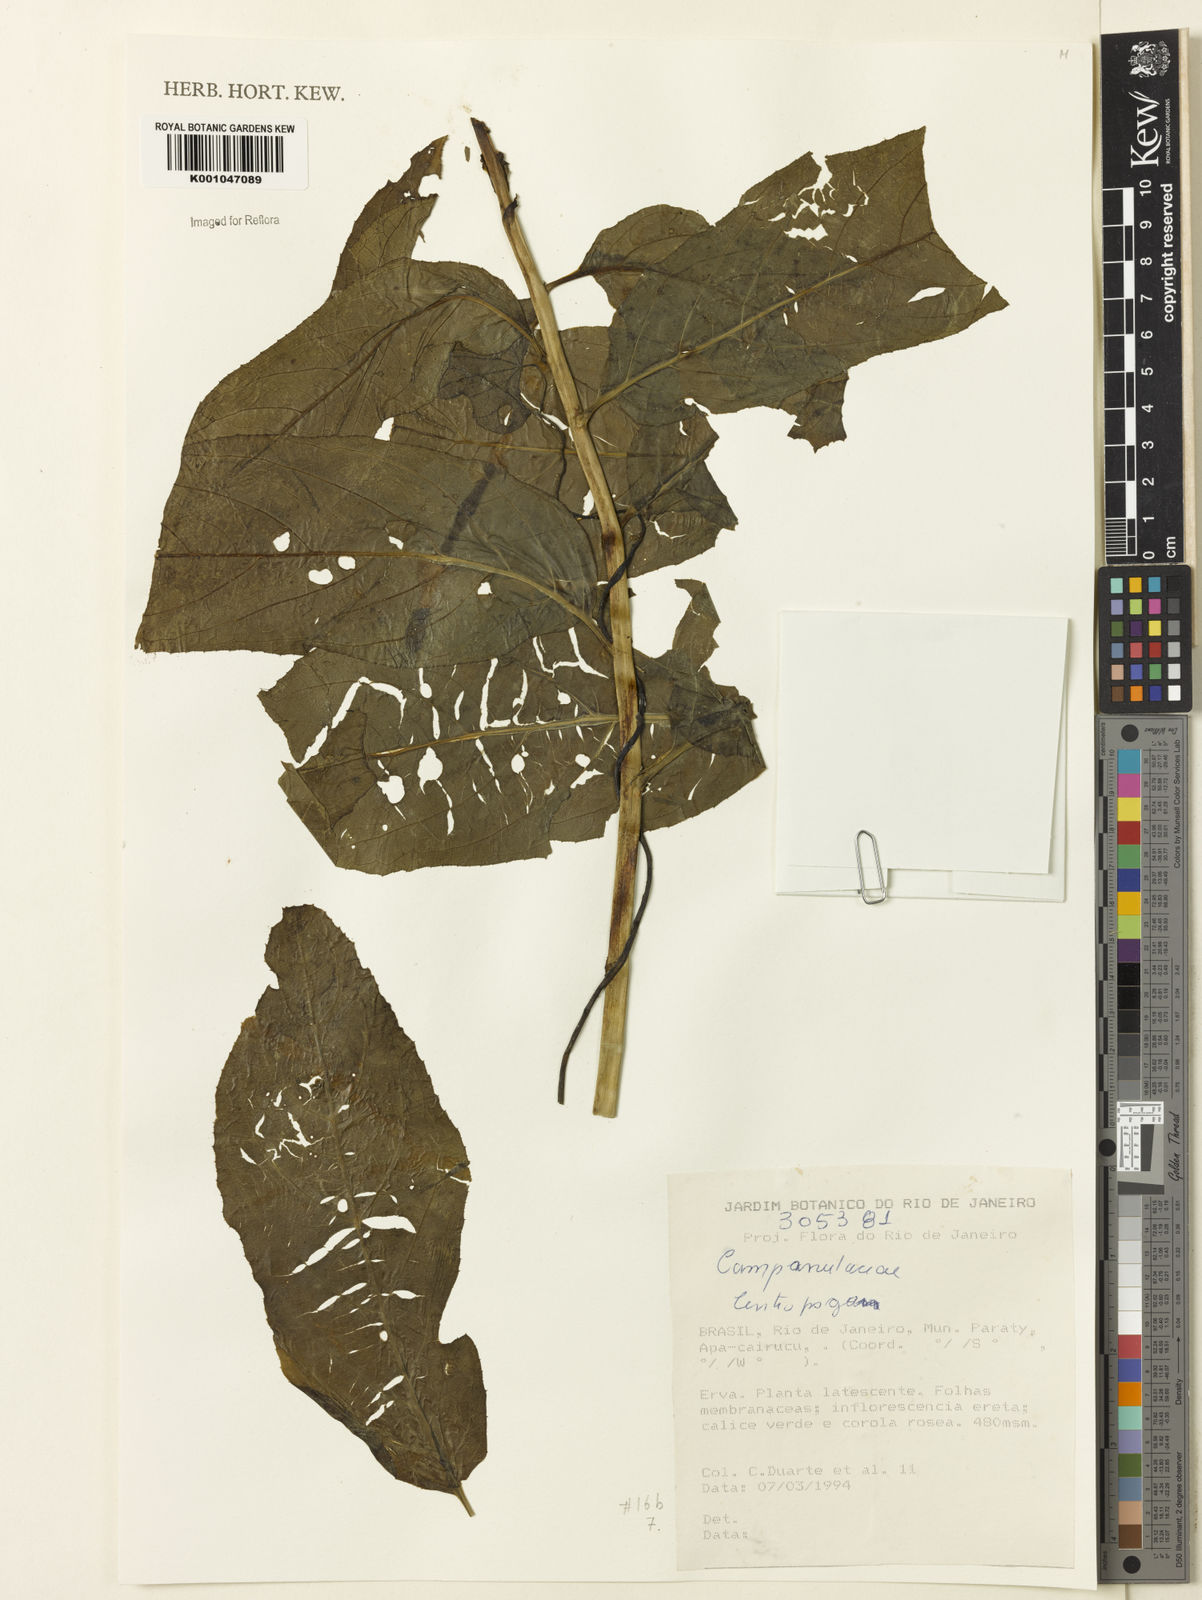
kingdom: Plantae
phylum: Tracheophyta
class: Magnoliopsida
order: Asterales
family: Campanulaceae
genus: Centropogon
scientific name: Centropogon
